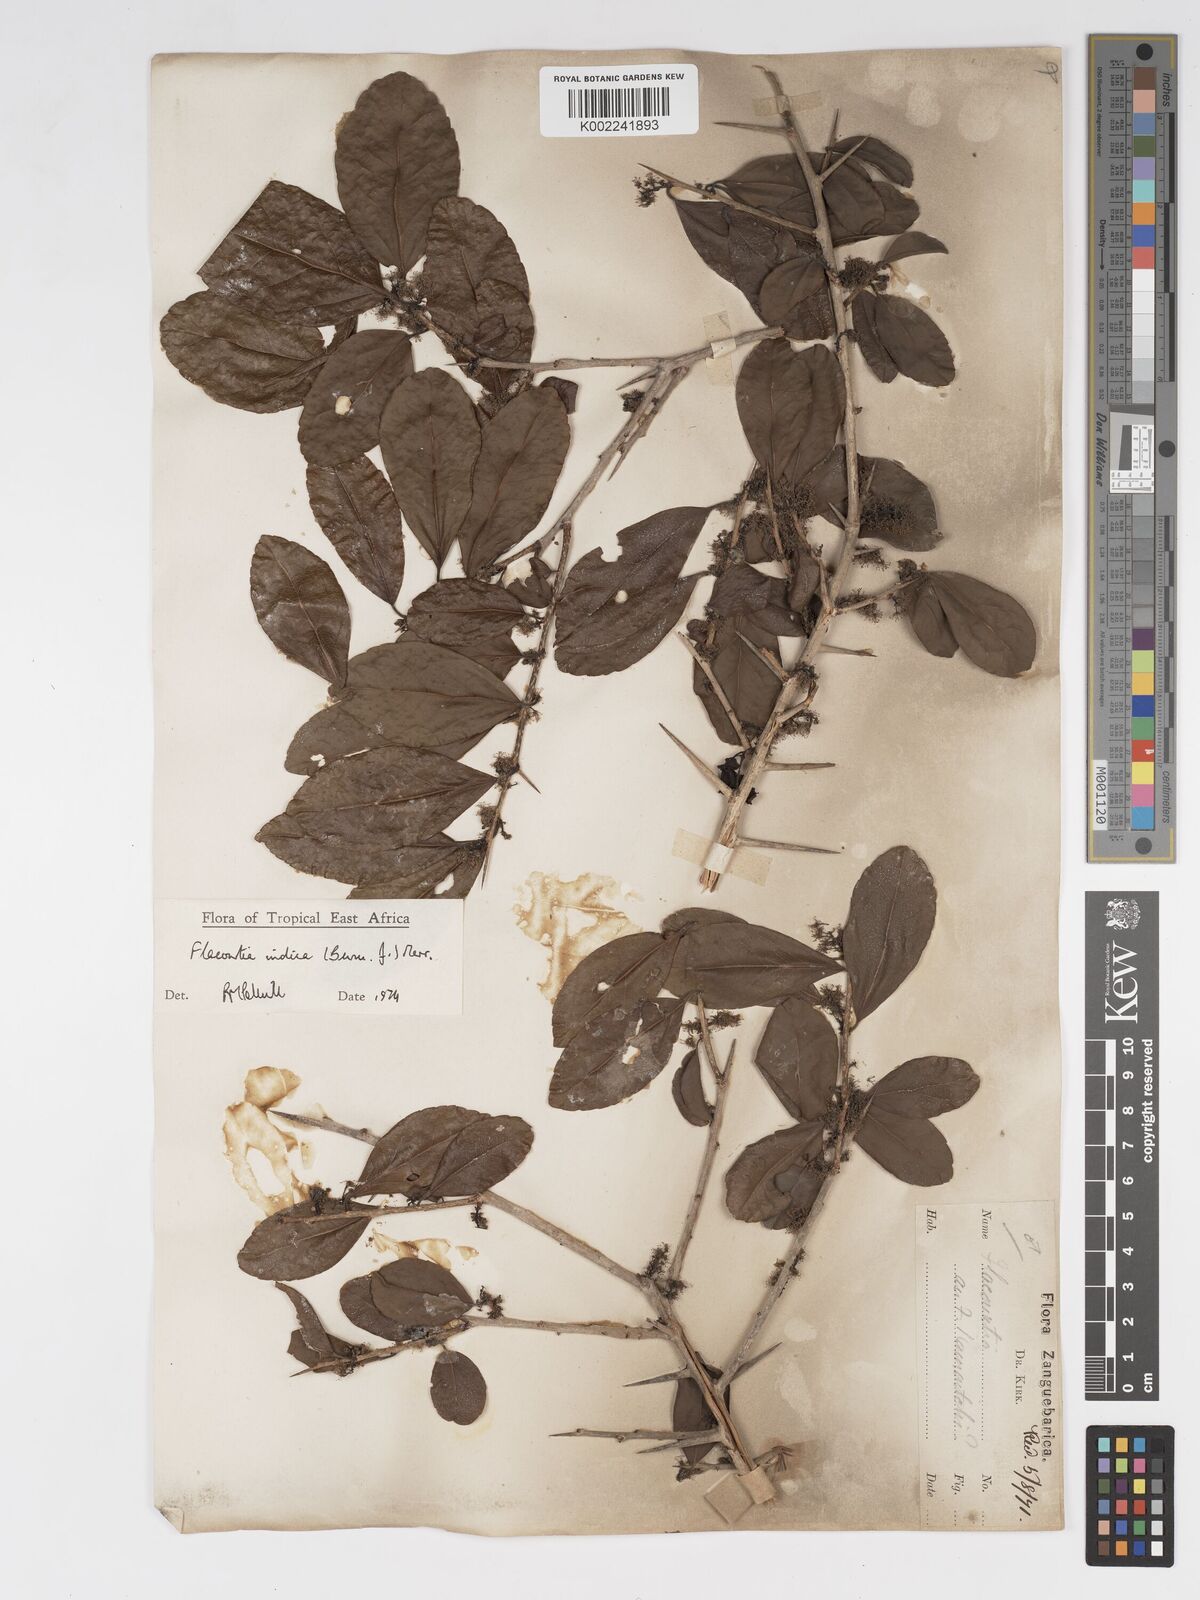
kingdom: Plantae
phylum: Tracheophyta
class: Magnoliopsida
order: Malpighiales
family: Salicaceae
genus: Flacourtia
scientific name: Flacourtia indica
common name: Governor's plum
